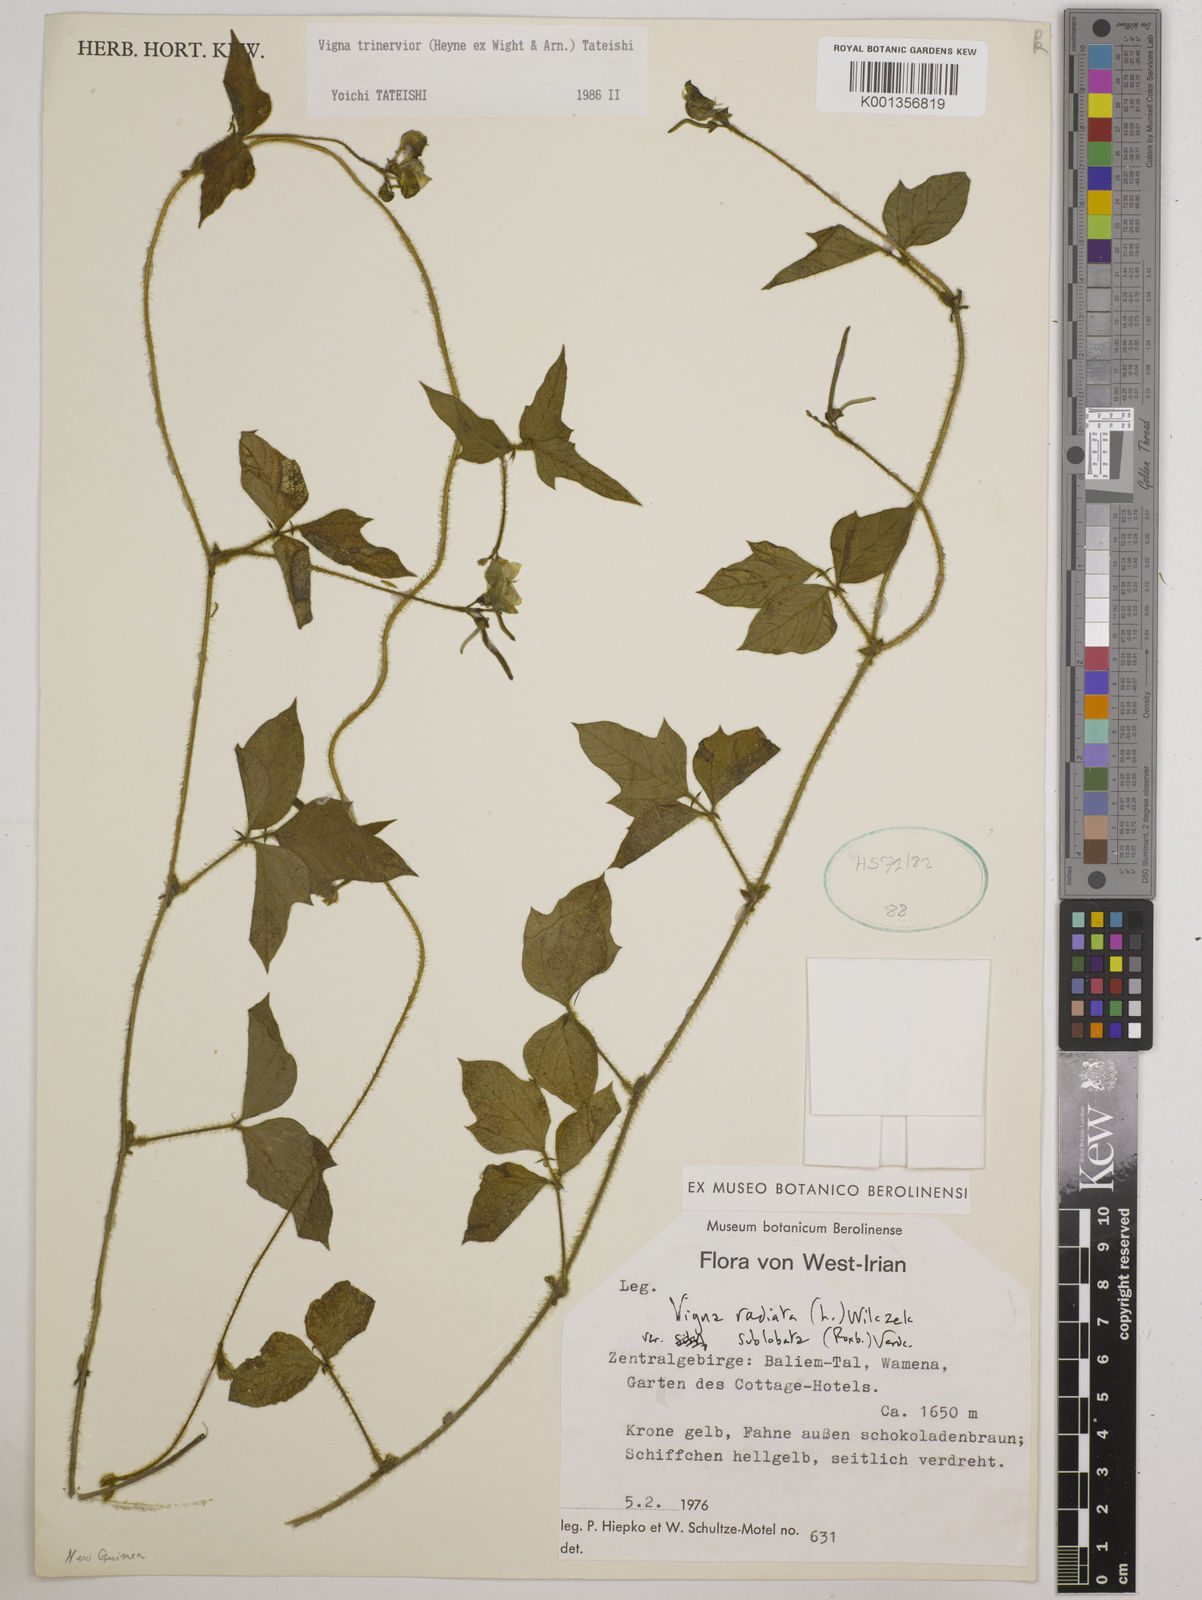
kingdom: Plantae
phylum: Tracheophyta
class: Magnoliopsida
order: Fabales
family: Fabaceae
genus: Vigna
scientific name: Vigna
